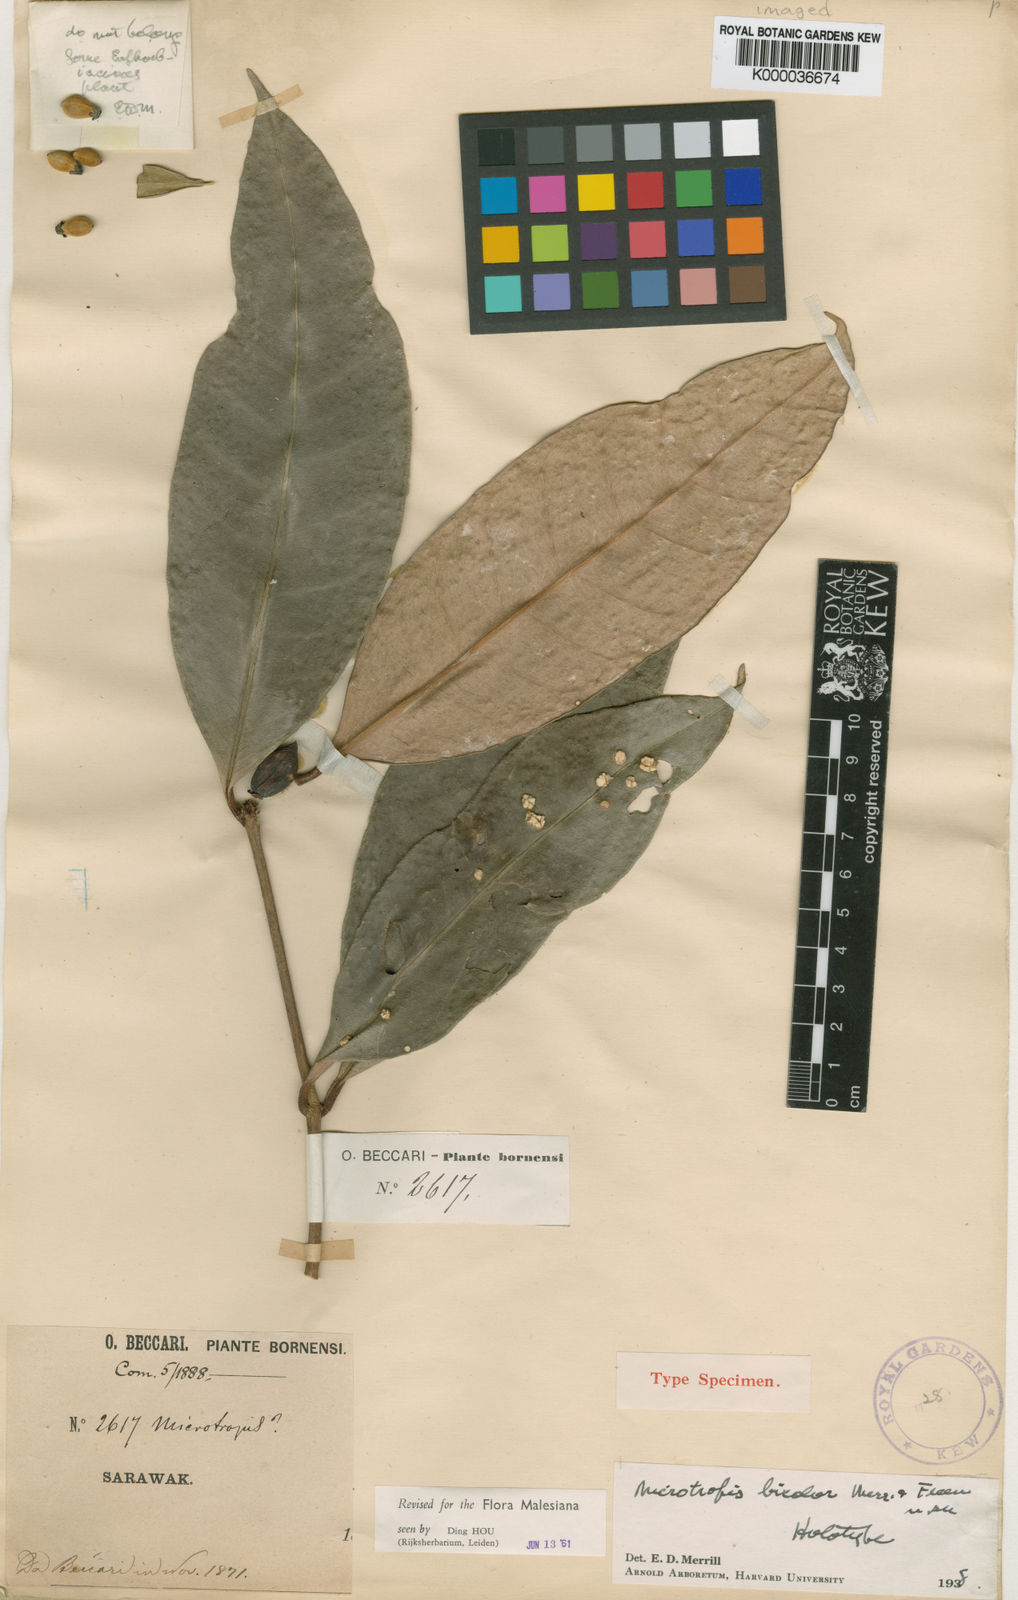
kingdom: Plantae
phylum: Tracheophyta
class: Magnoliopsida
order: Celastrales
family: Celastraceae
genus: Microtropis
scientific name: Microtropis valida
